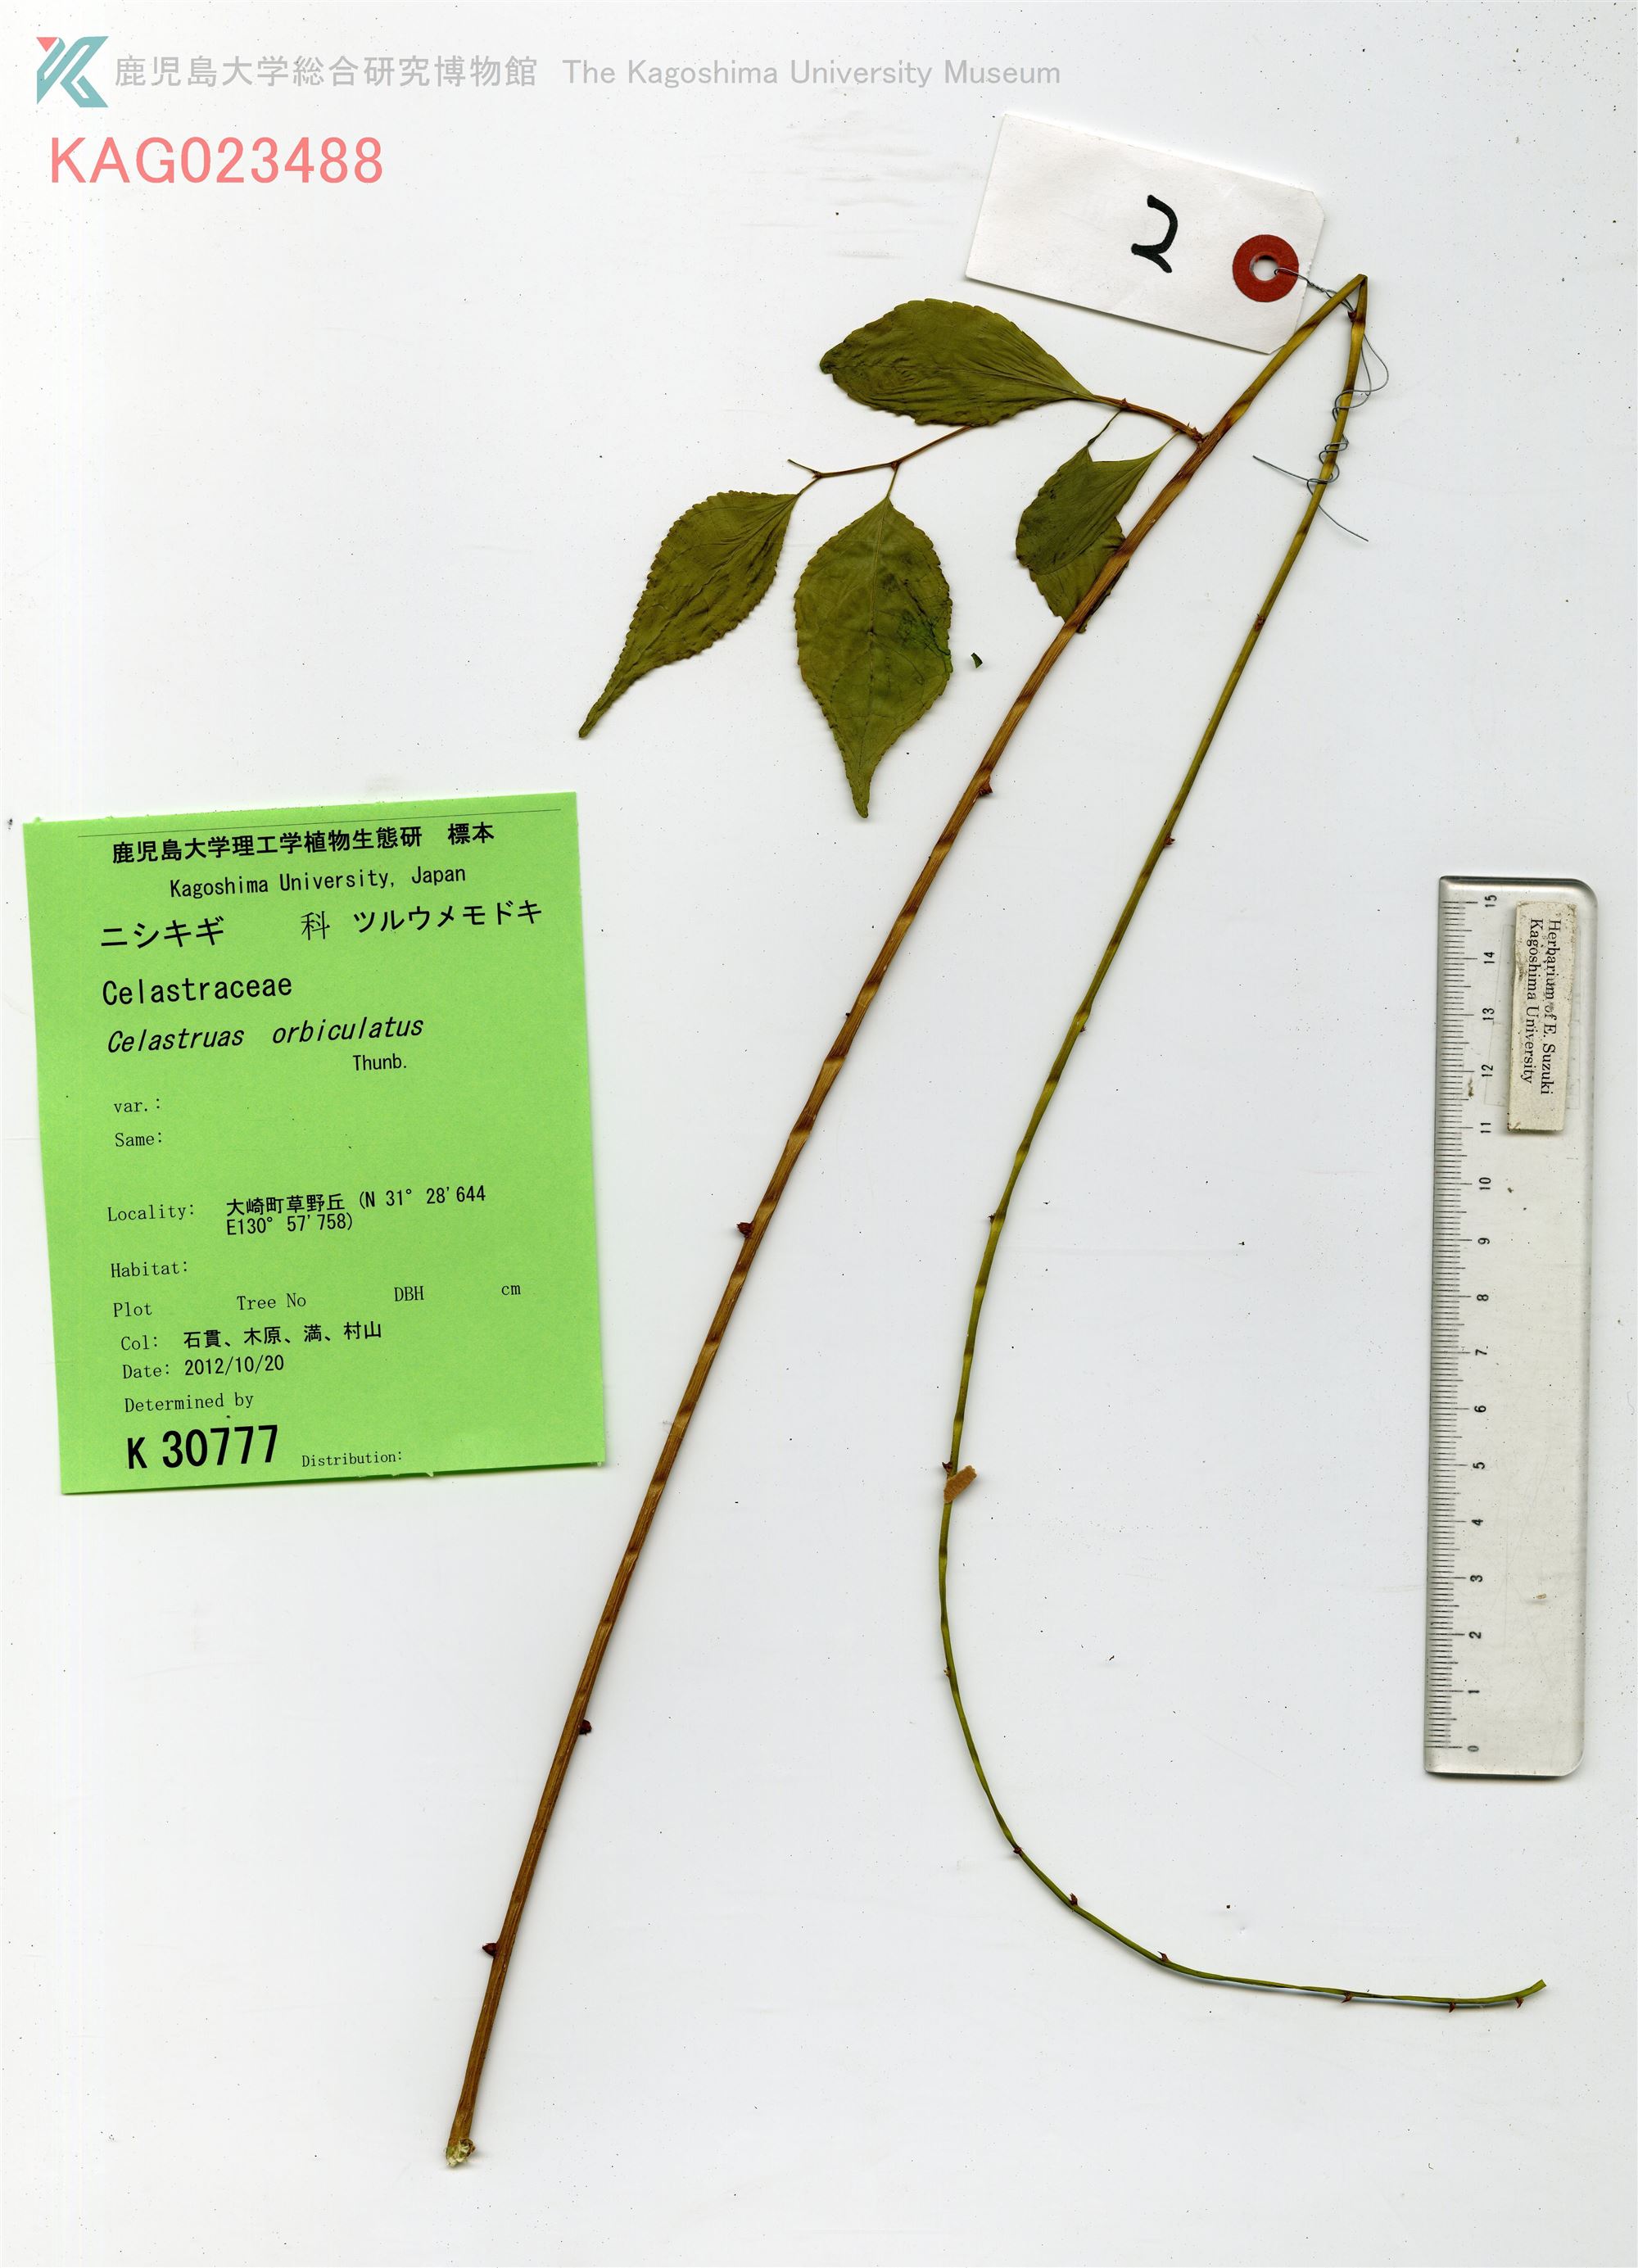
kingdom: Plantae
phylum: Tracheophyta
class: Magnoliopsida
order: Celastrales
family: Celastraceae
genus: Celastrus
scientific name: Celastrus orbiculatus
